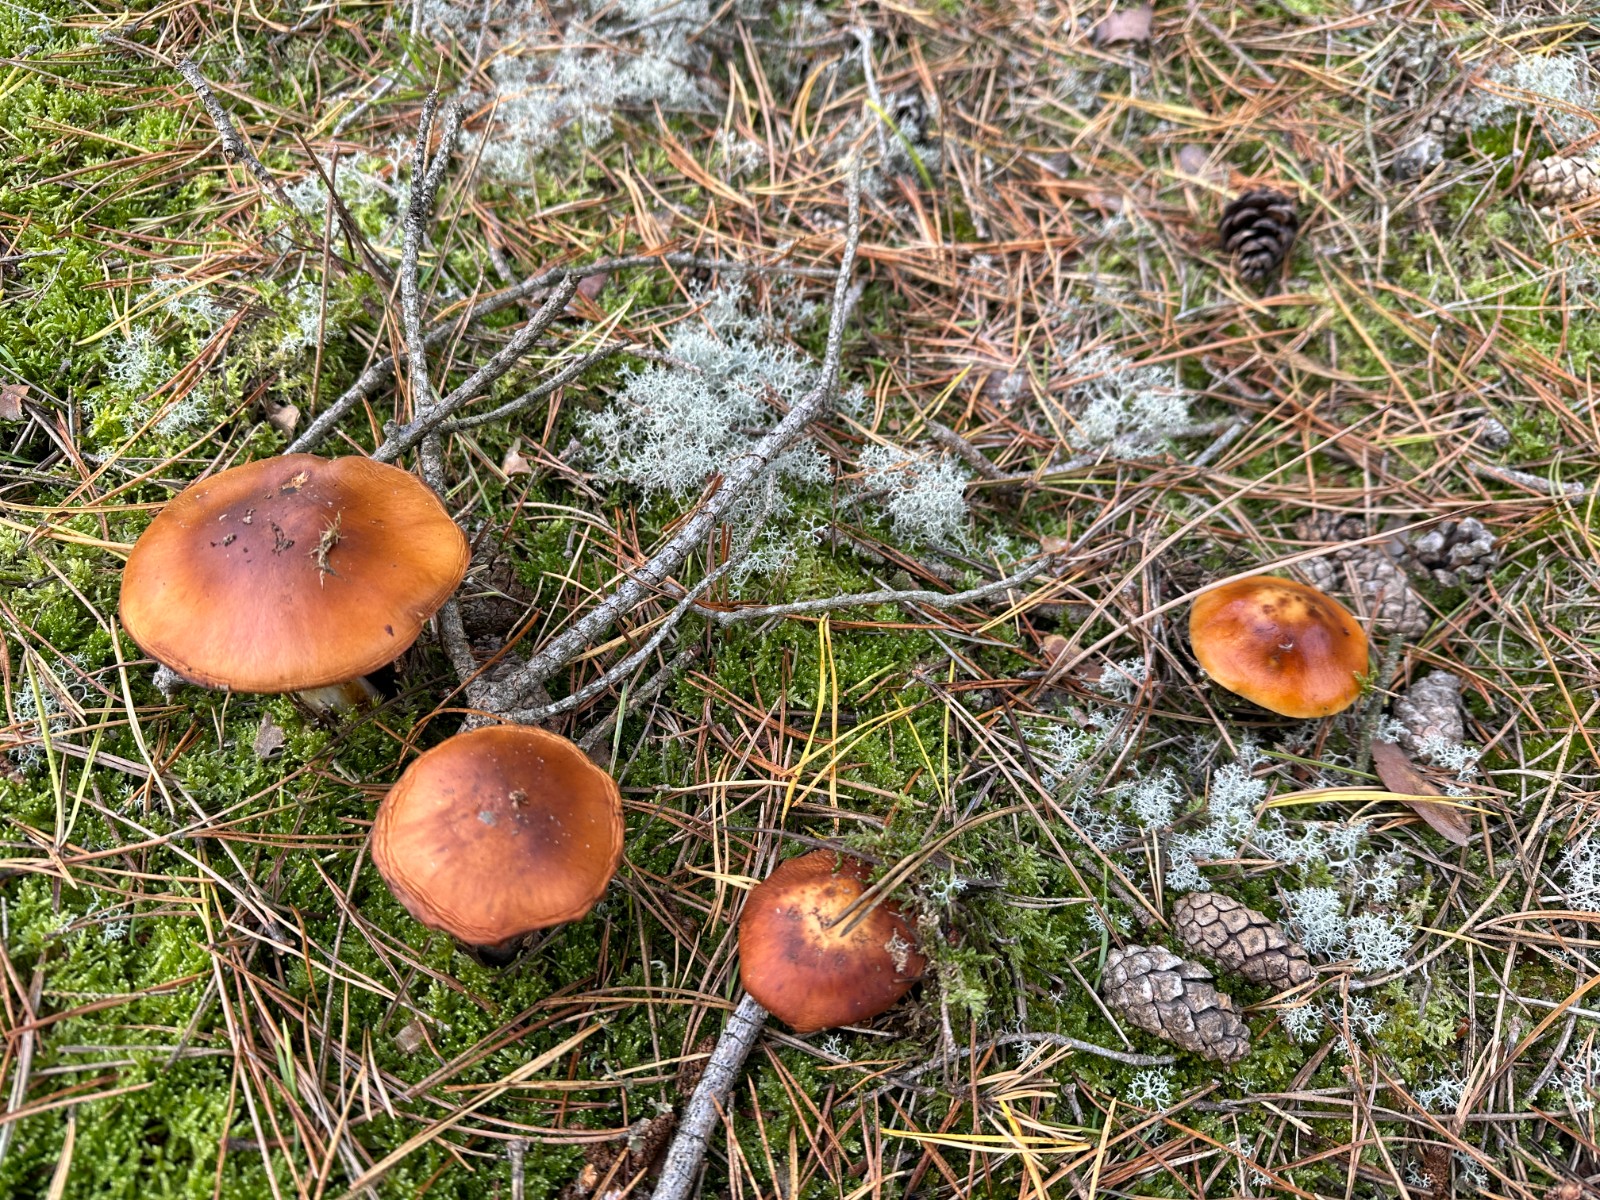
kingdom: Fungi
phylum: Basidiomycota
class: Agaricomycetes
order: Agaricales
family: Cortinariaceae
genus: Cortinarius
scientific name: Cortinarius mucosus
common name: kastaniebrun slørhat
